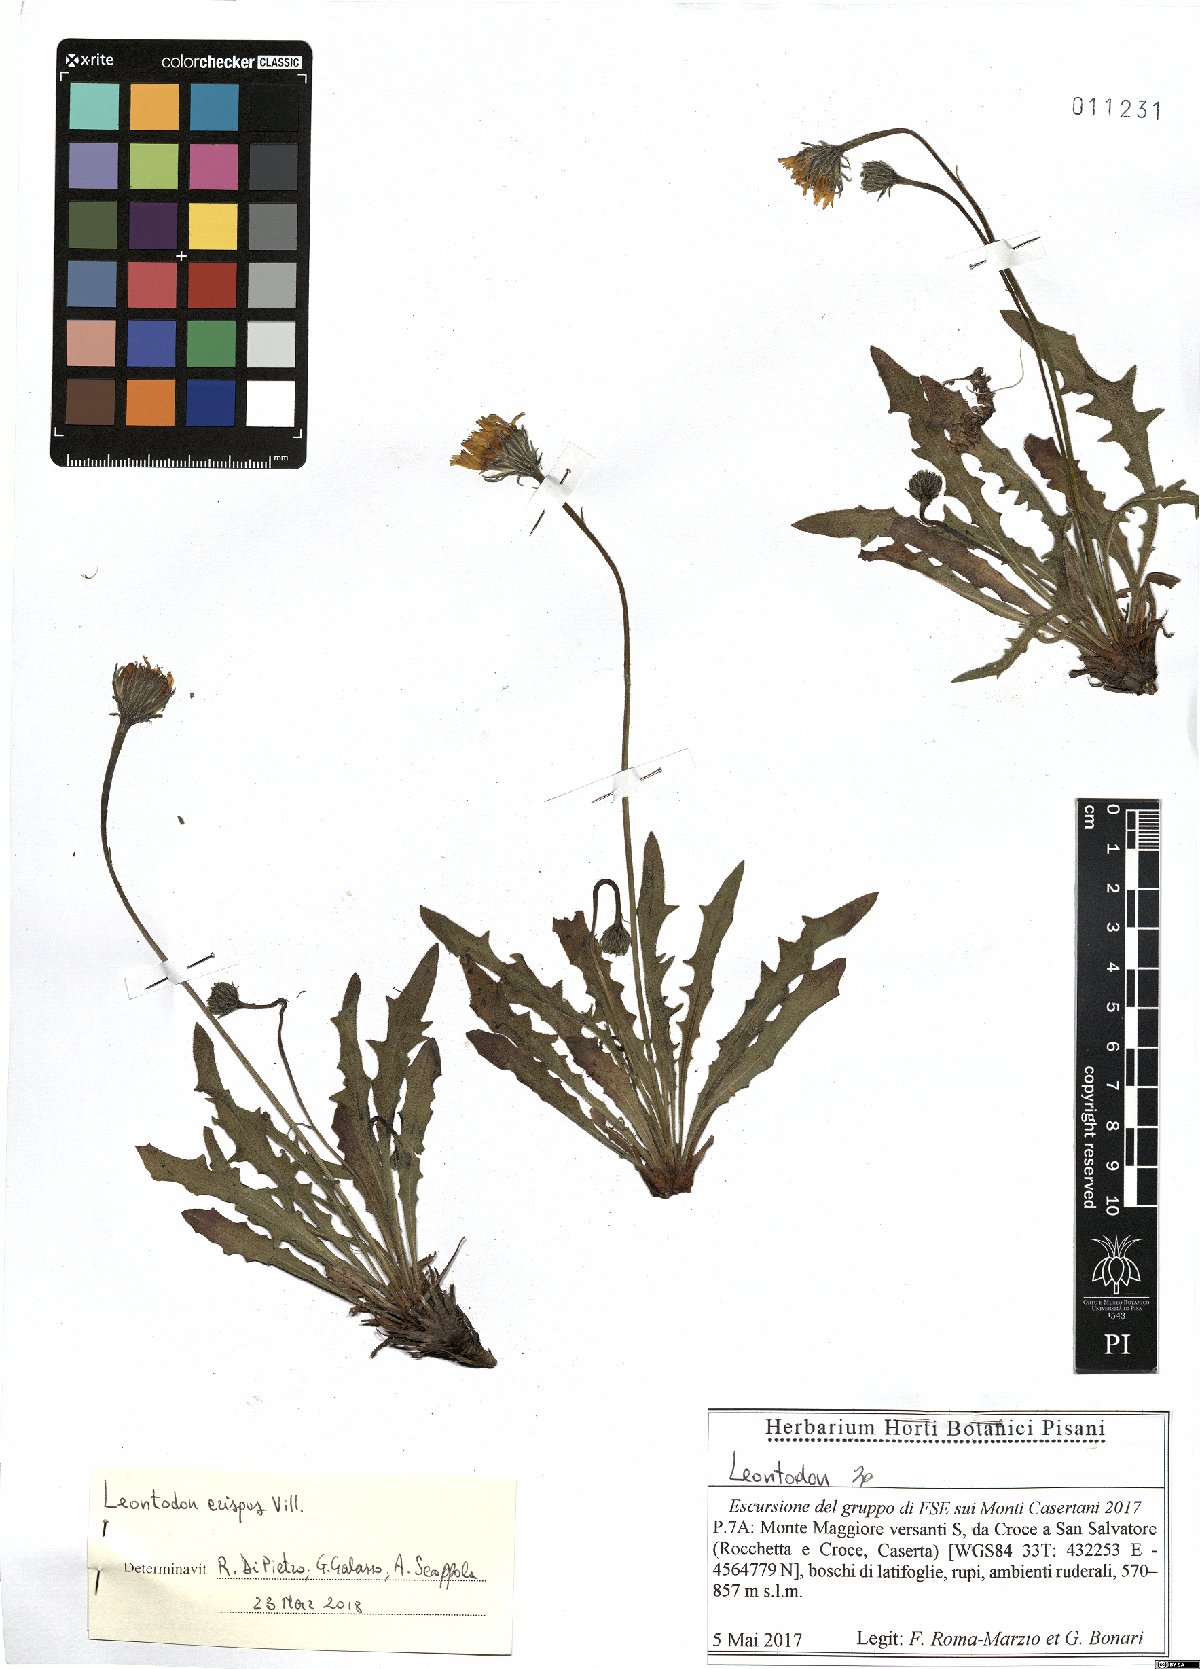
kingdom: Plantae
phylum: Tracheophyta
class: Magnoliopsida
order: Asterales
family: Asteraceae
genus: Leontodon
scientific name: Leontodon crispus
